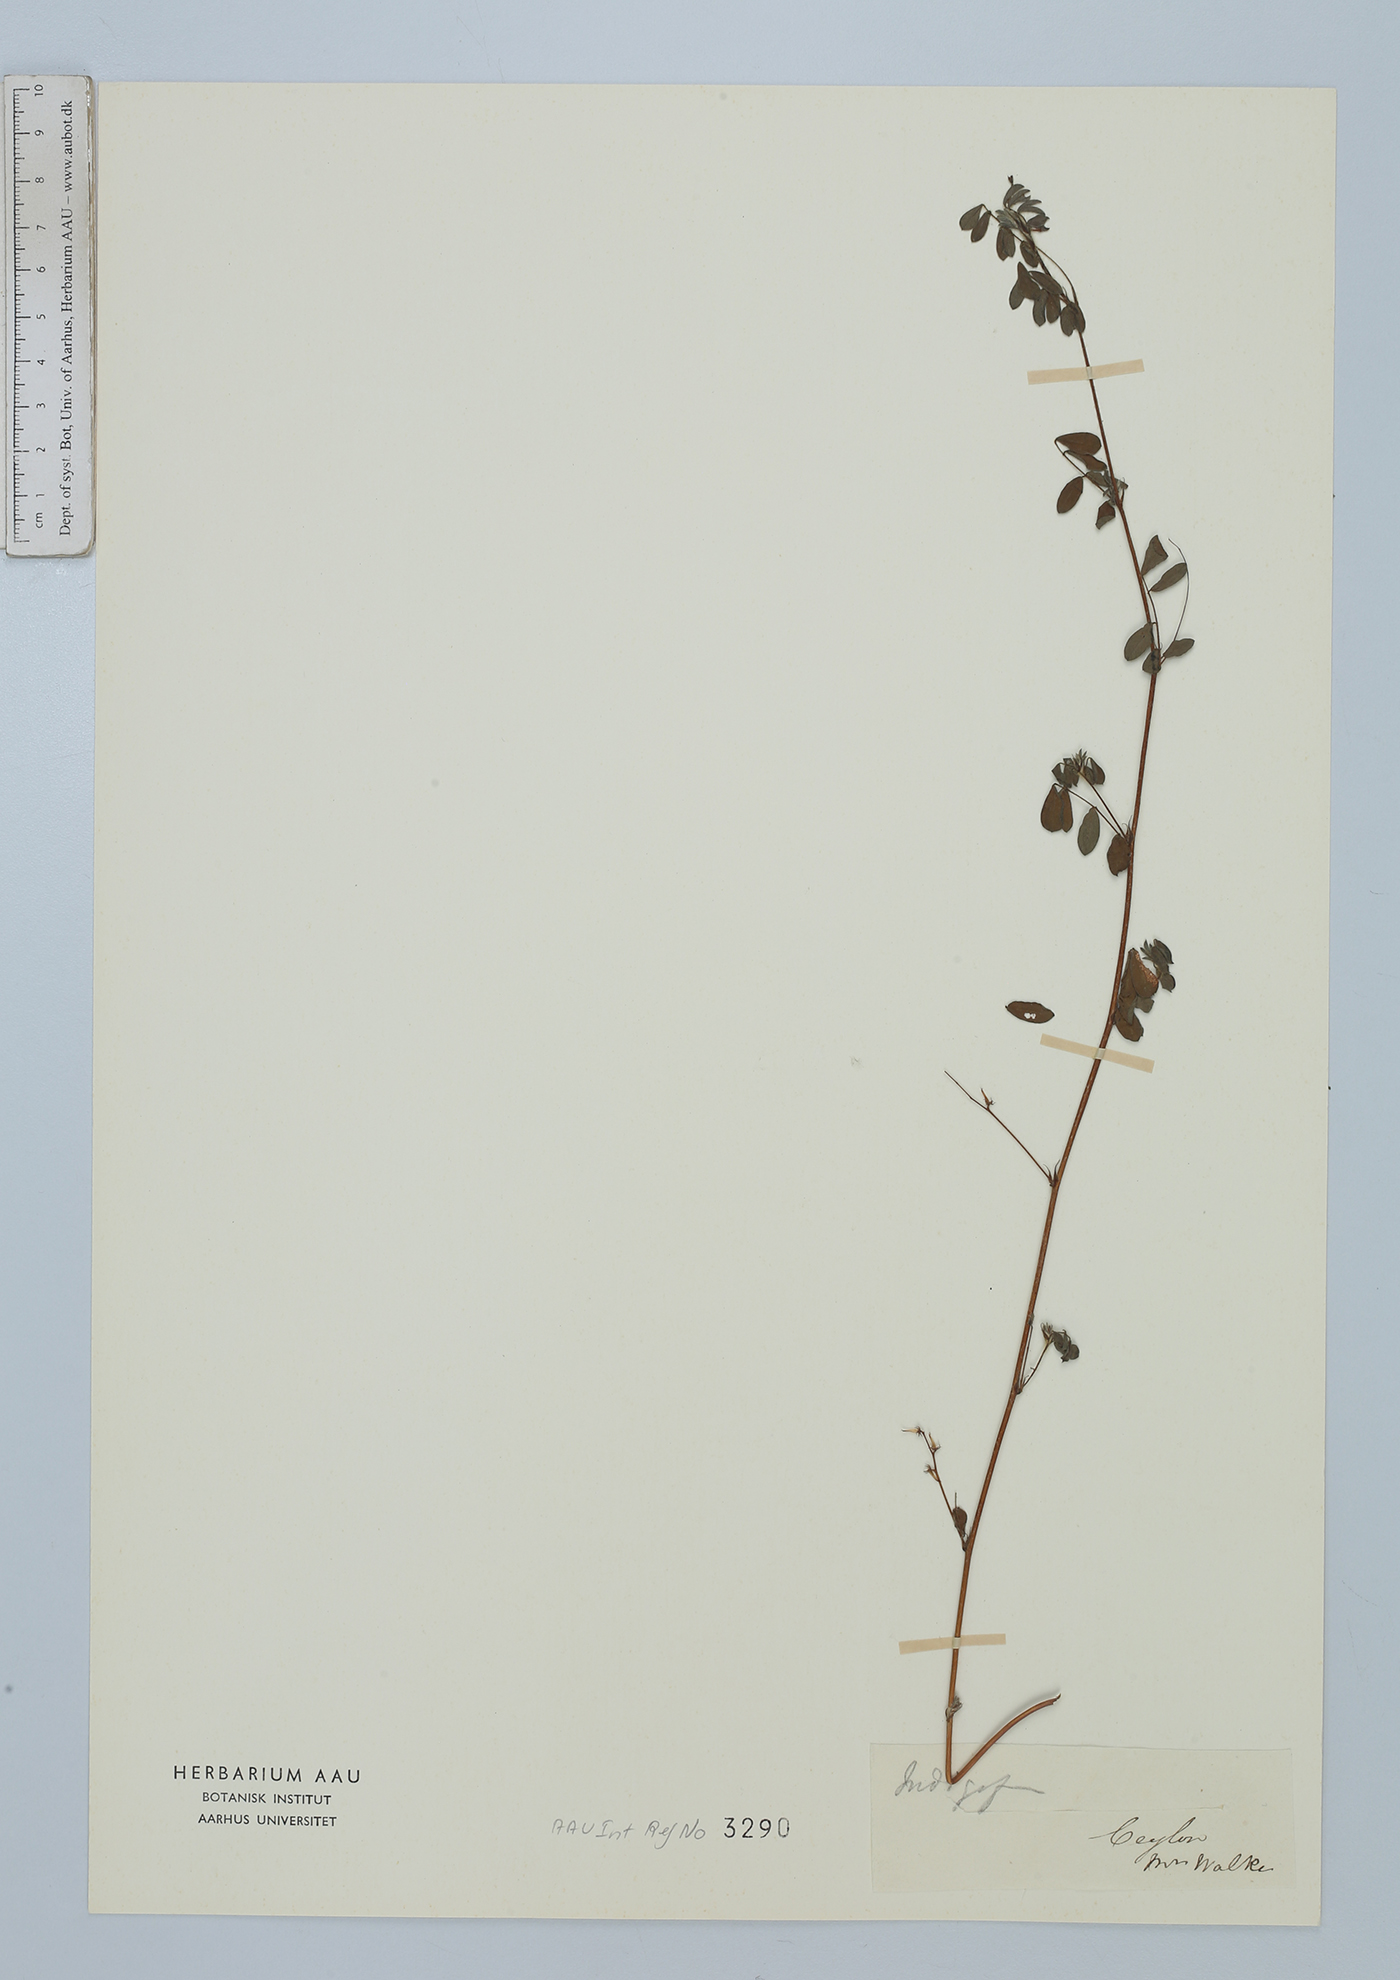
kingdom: Plantae
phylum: Tracheophyta
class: Magnoliopsida
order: Fabales
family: Fabaceae
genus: Indigofera
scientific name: Indigofera
